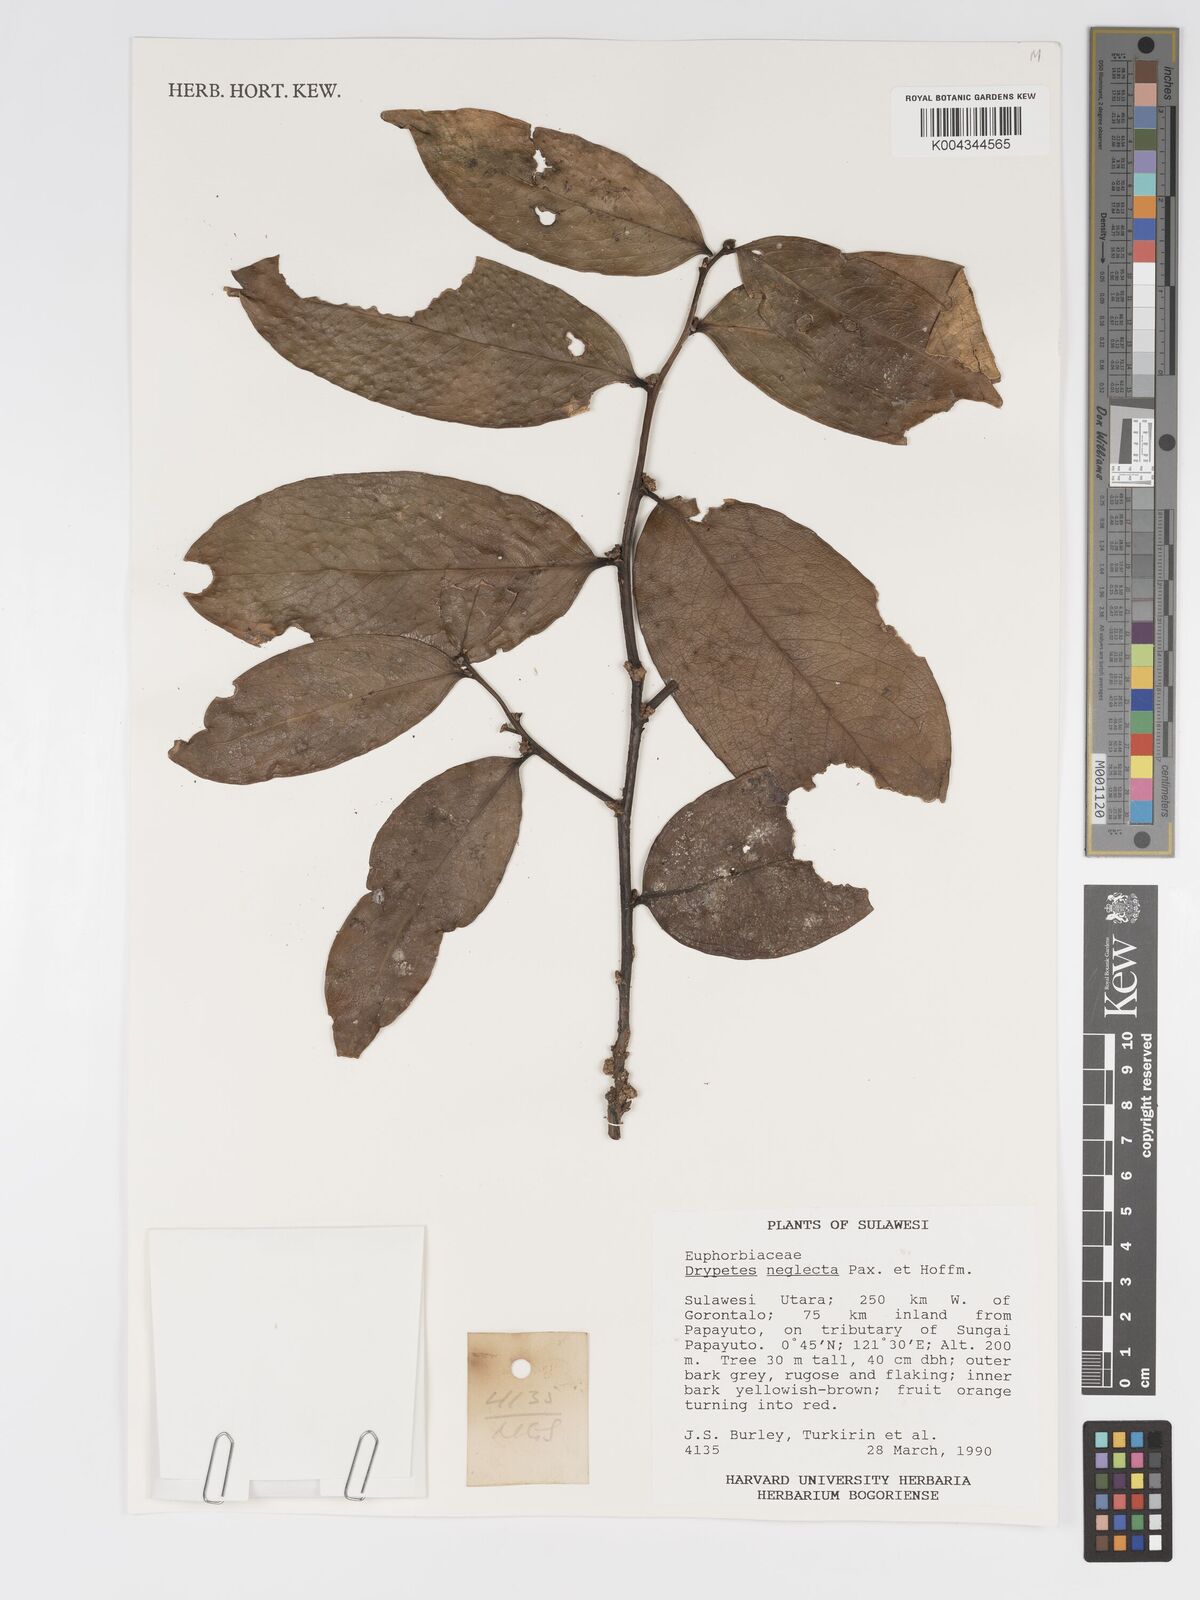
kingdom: Plantae
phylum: Tracheophyta
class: Magnoliopsida
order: Malpighiales
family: Putranjivaceae
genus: Drypetes
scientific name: Drypetes neglecta
